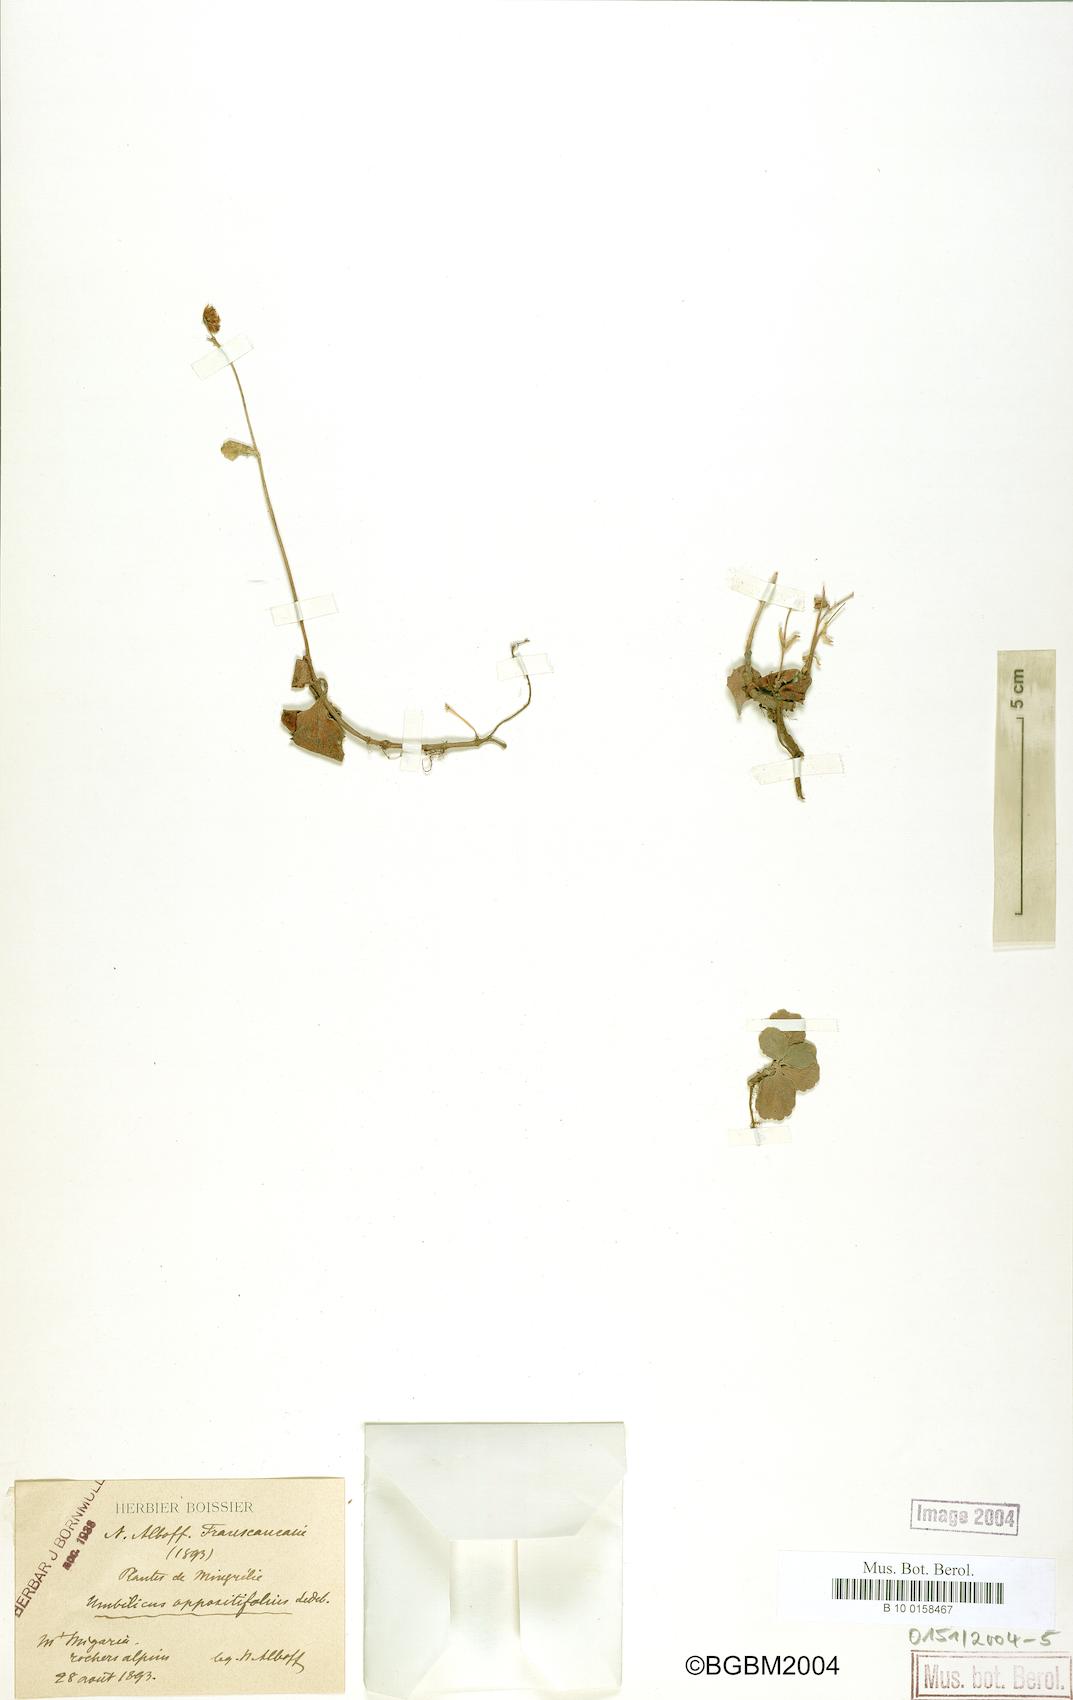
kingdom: Plantae
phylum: Tracheophyta
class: Magnoliopsida
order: Saxifragales
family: Crassulaceae
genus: Umbilicus
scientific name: Umbilicus oppositifolius
